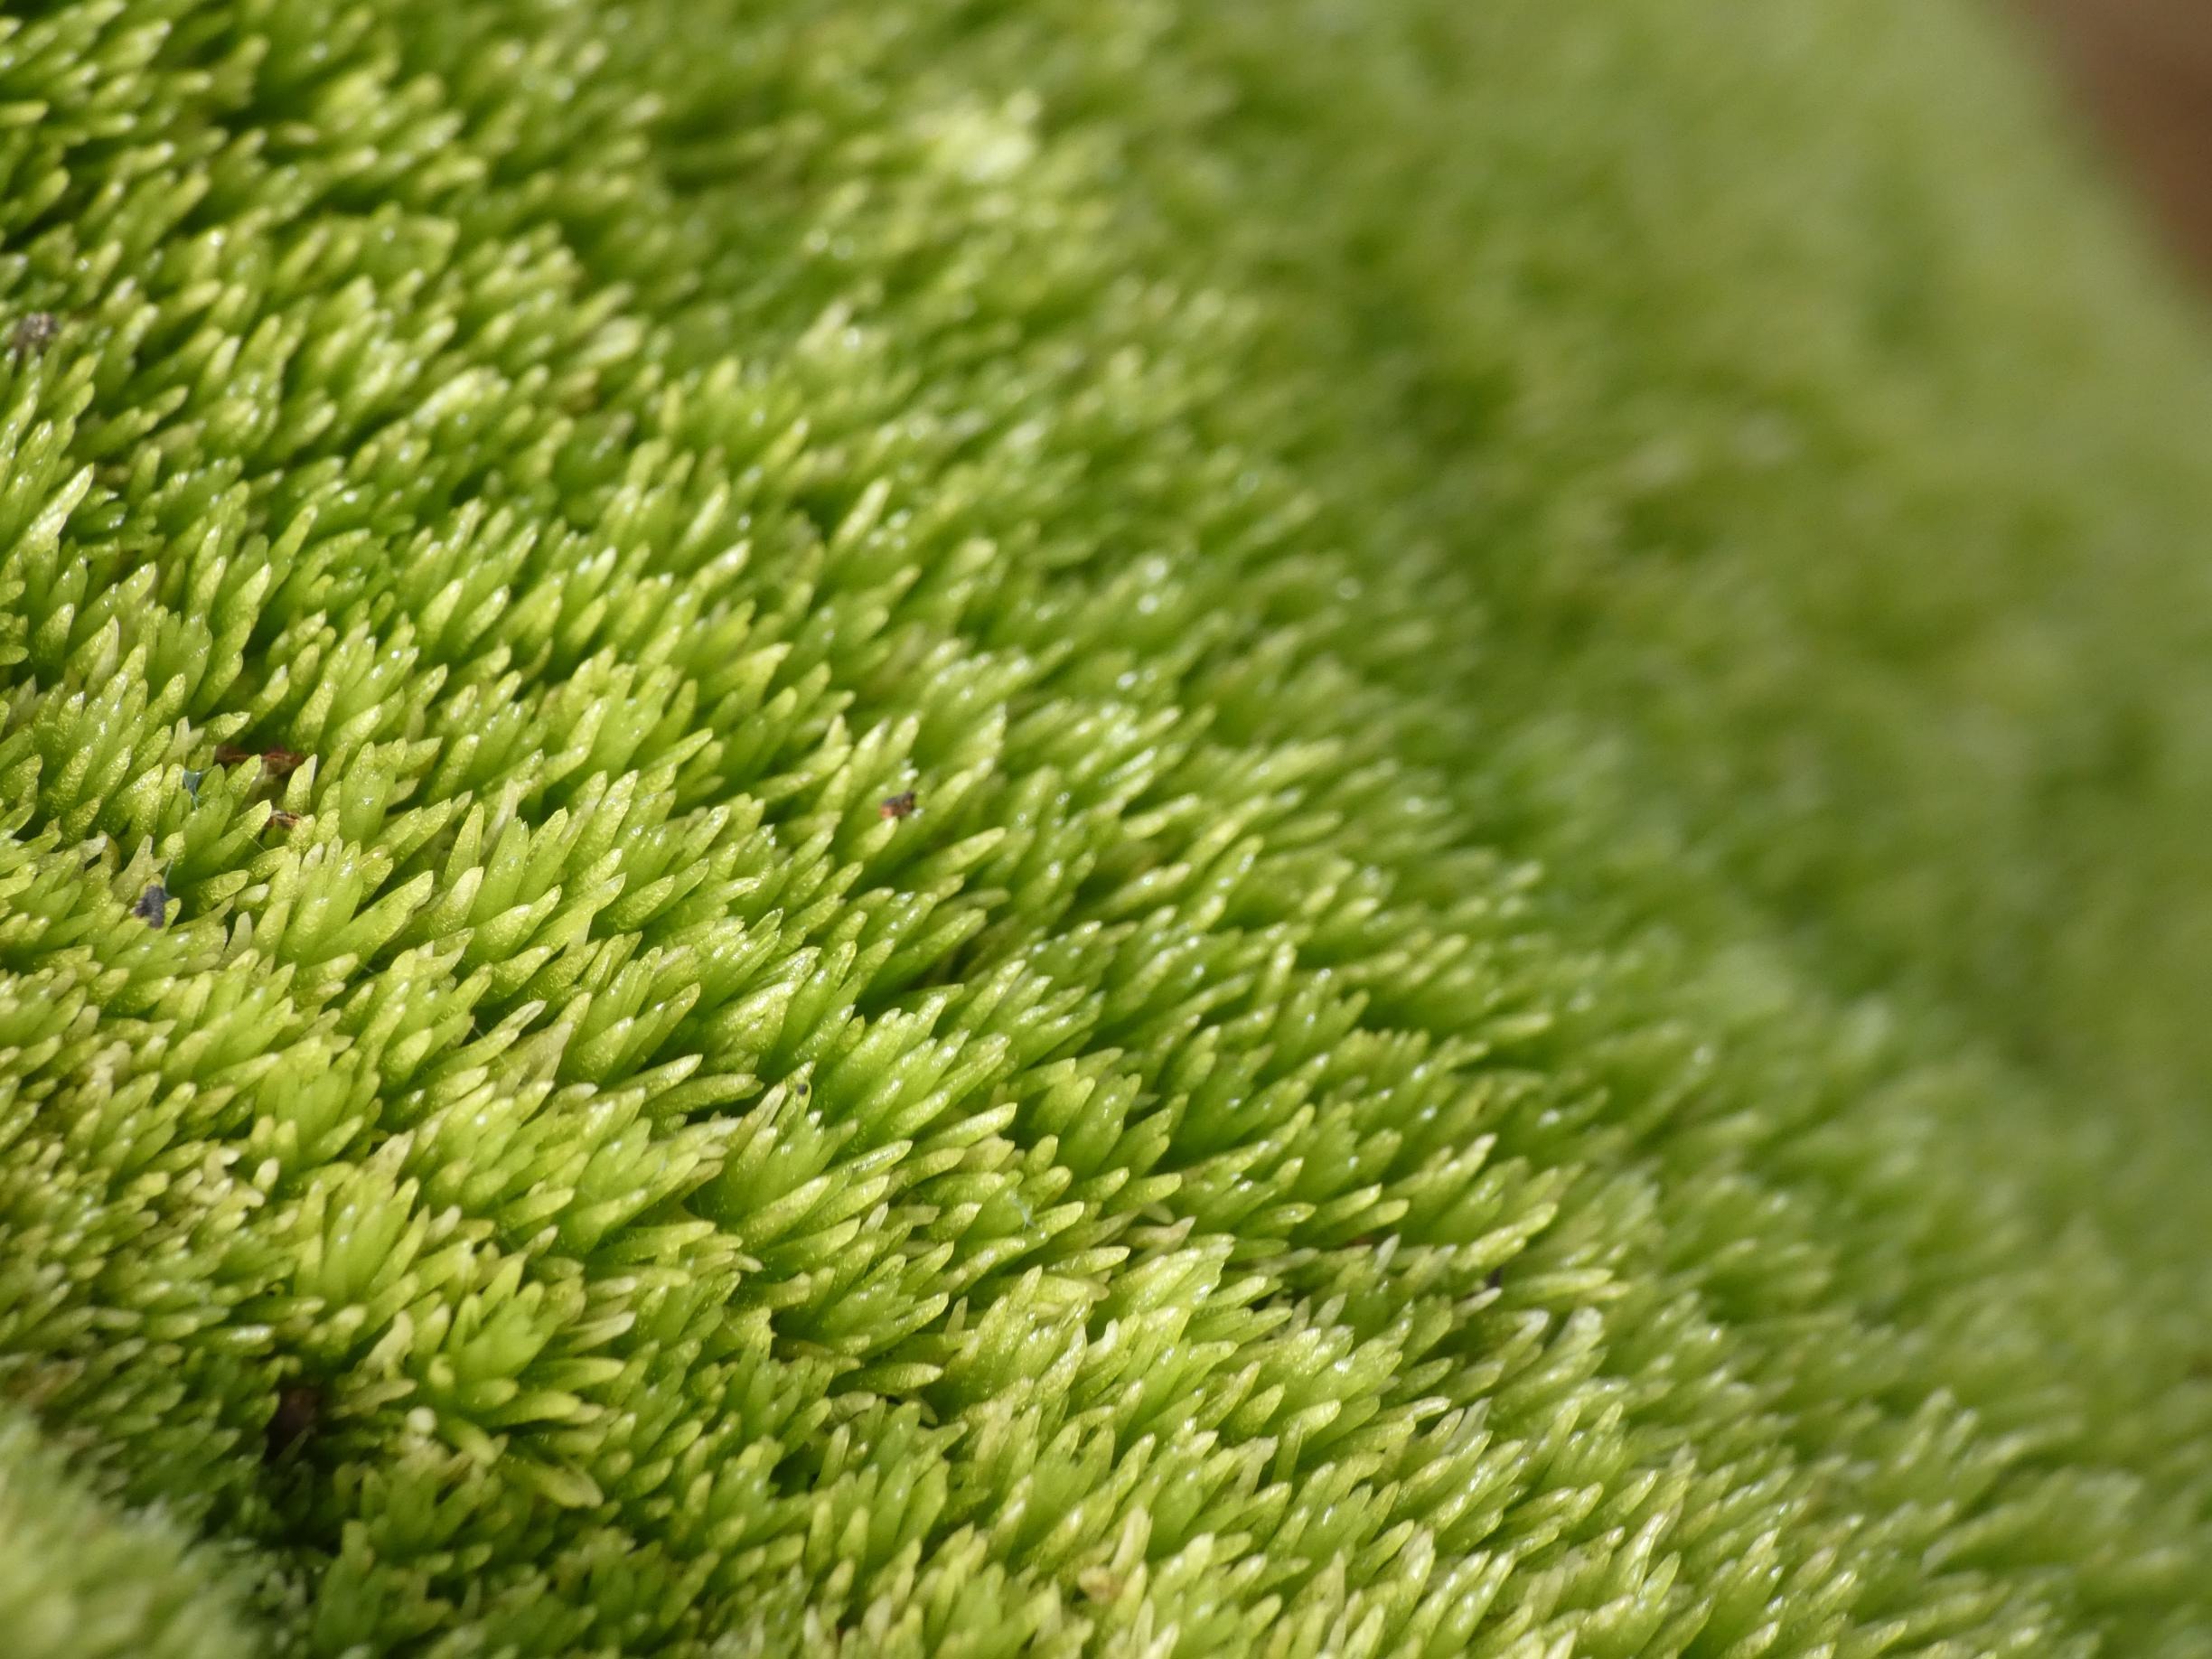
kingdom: Plantae
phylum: Bryophyta
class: Bryopsida
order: Dicranales
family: Leucobryaceae
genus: Leucobryum
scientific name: Leucobryum glaucum
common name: Almindelig hvidmos
